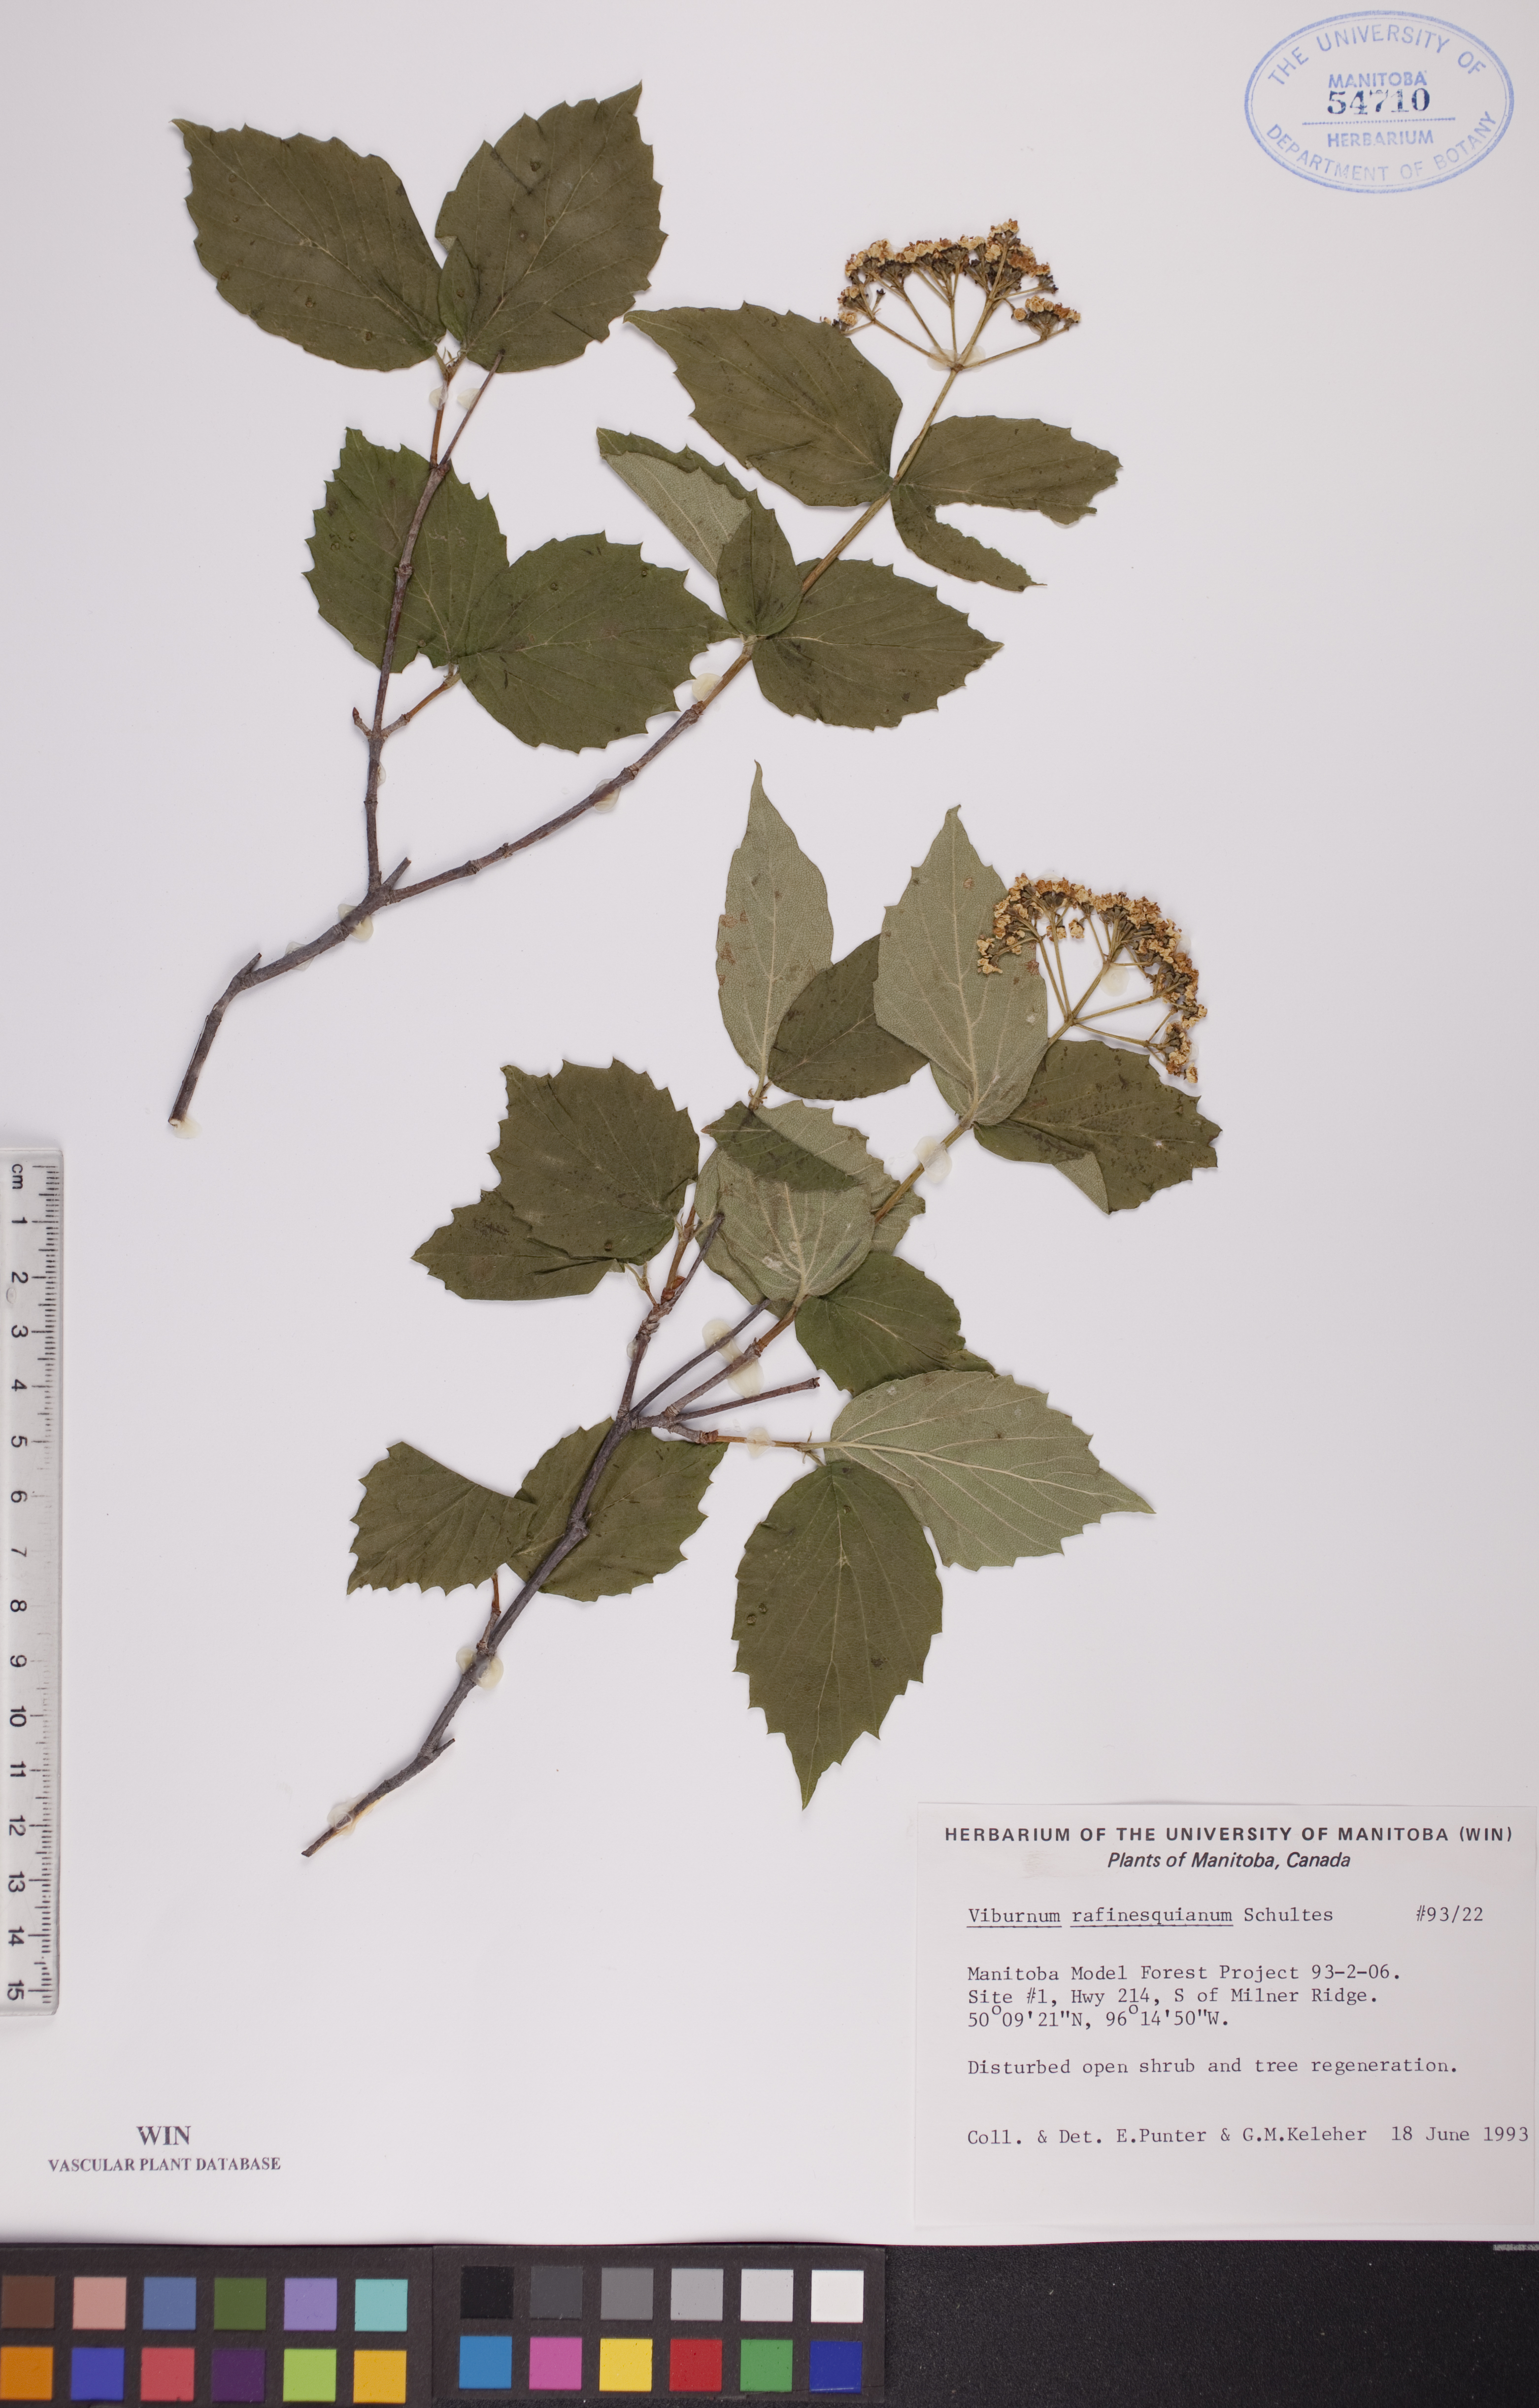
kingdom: Plantae
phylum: Tracheophyta
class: Magnoliopsida
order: Dipsacales
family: Viburnaceae
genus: Viburnum
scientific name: Viburnum rafinesquianum
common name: Downy arrow-wood
